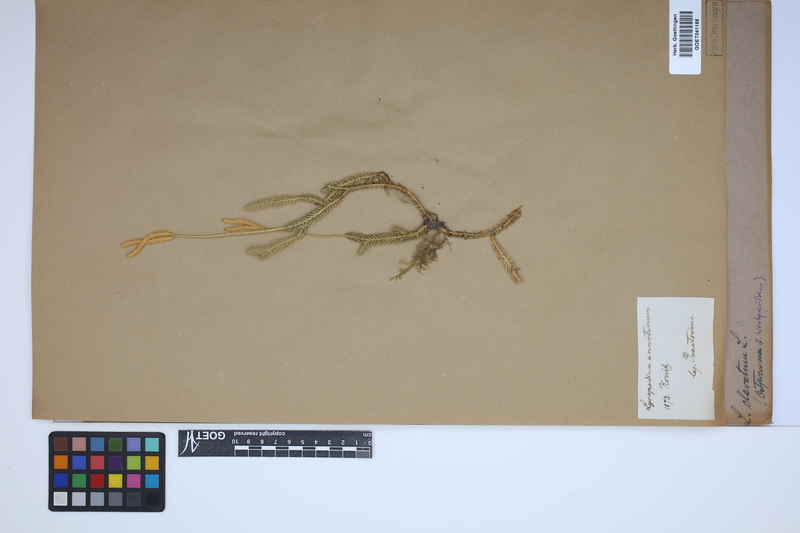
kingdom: Plantae
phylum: Tracheophyta
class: Lycopodiopsida
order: Lycopodiales
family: Lycopodiaceae
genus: Lycopodium
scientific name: Lycopodium clavatum
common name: Stag's-horn clubmoss
